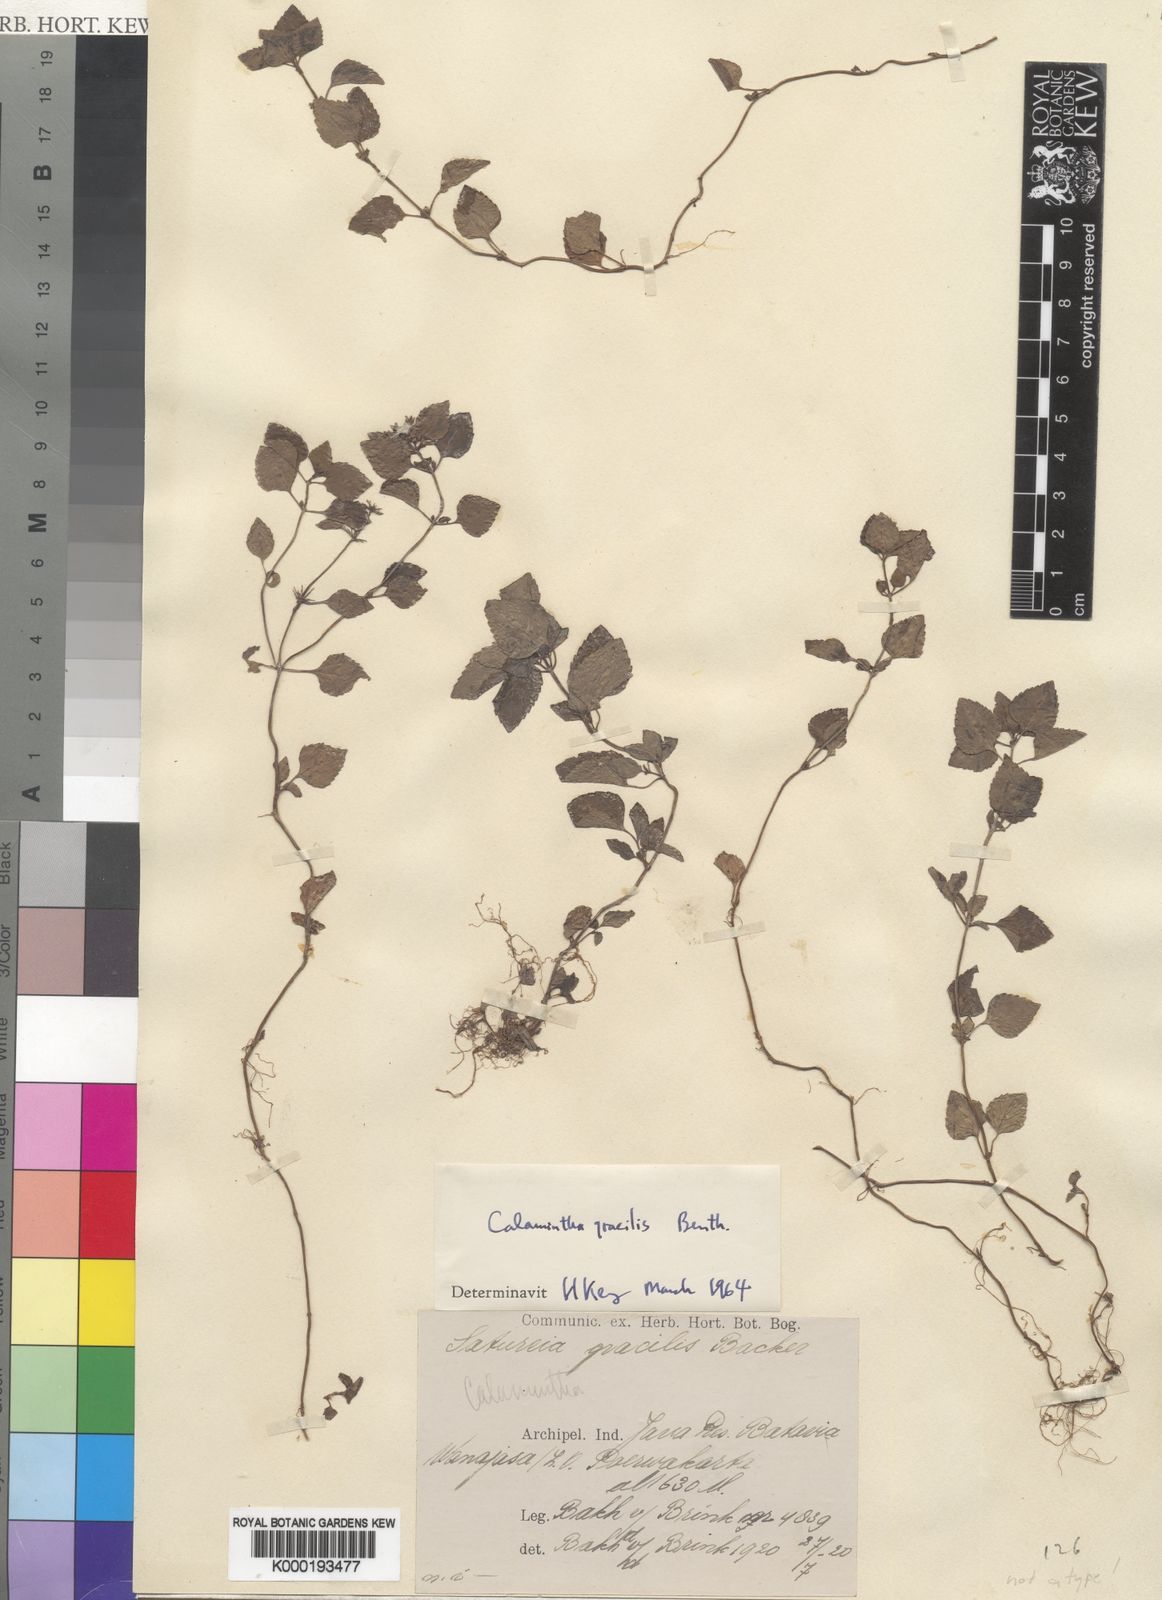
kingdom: Plantae
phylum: Tracheophyta
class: Magnoliopsida
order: Lamiales
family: Lamiaceae
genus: Clinopodium
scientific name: Clinopodium gracile
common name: Slender wild basil
